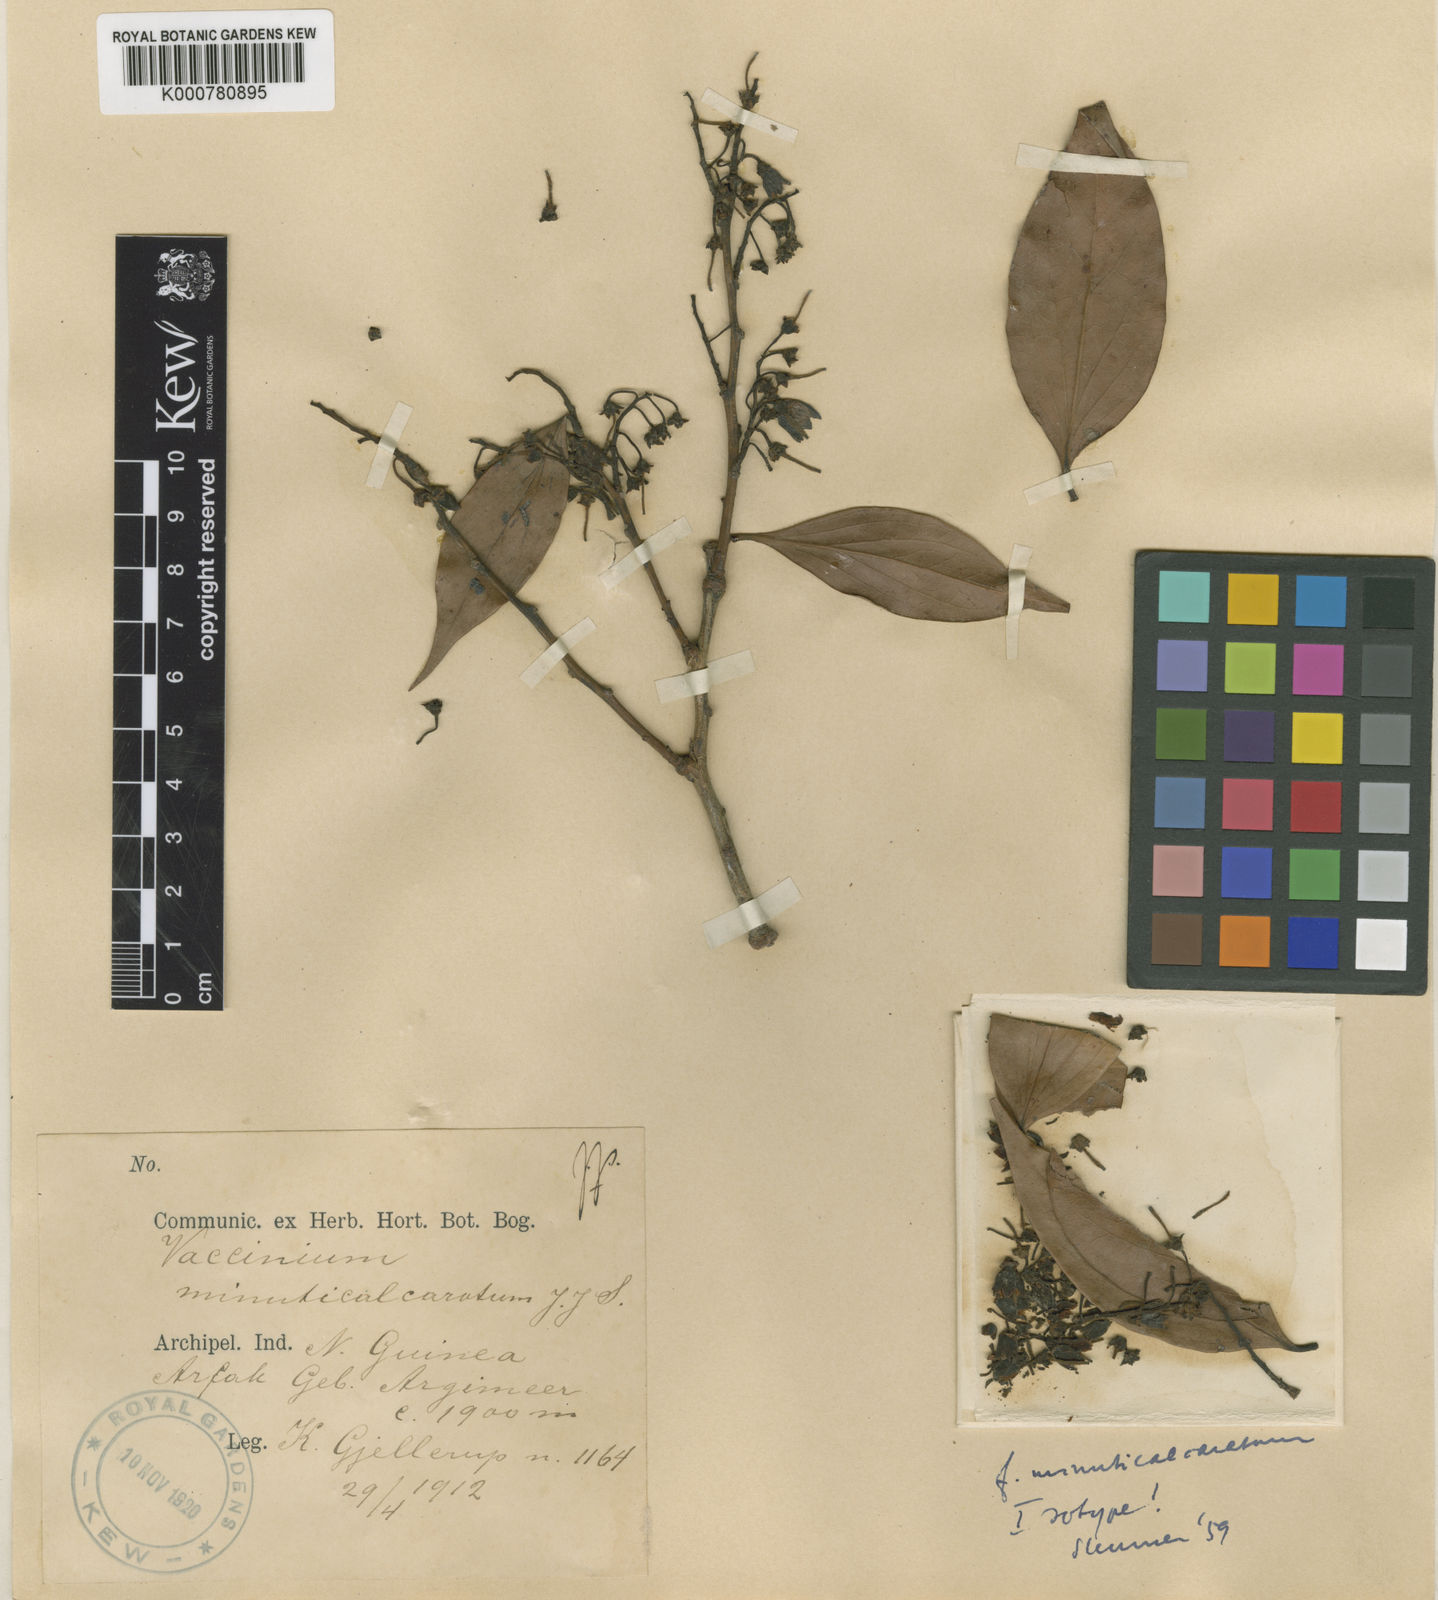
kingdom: Plantae
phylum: Tracheophyta
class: Magnoliopsida
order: Ericales
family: Ericaceae
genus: Vaccinium
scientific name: Vaccinium minuticalcaratum
